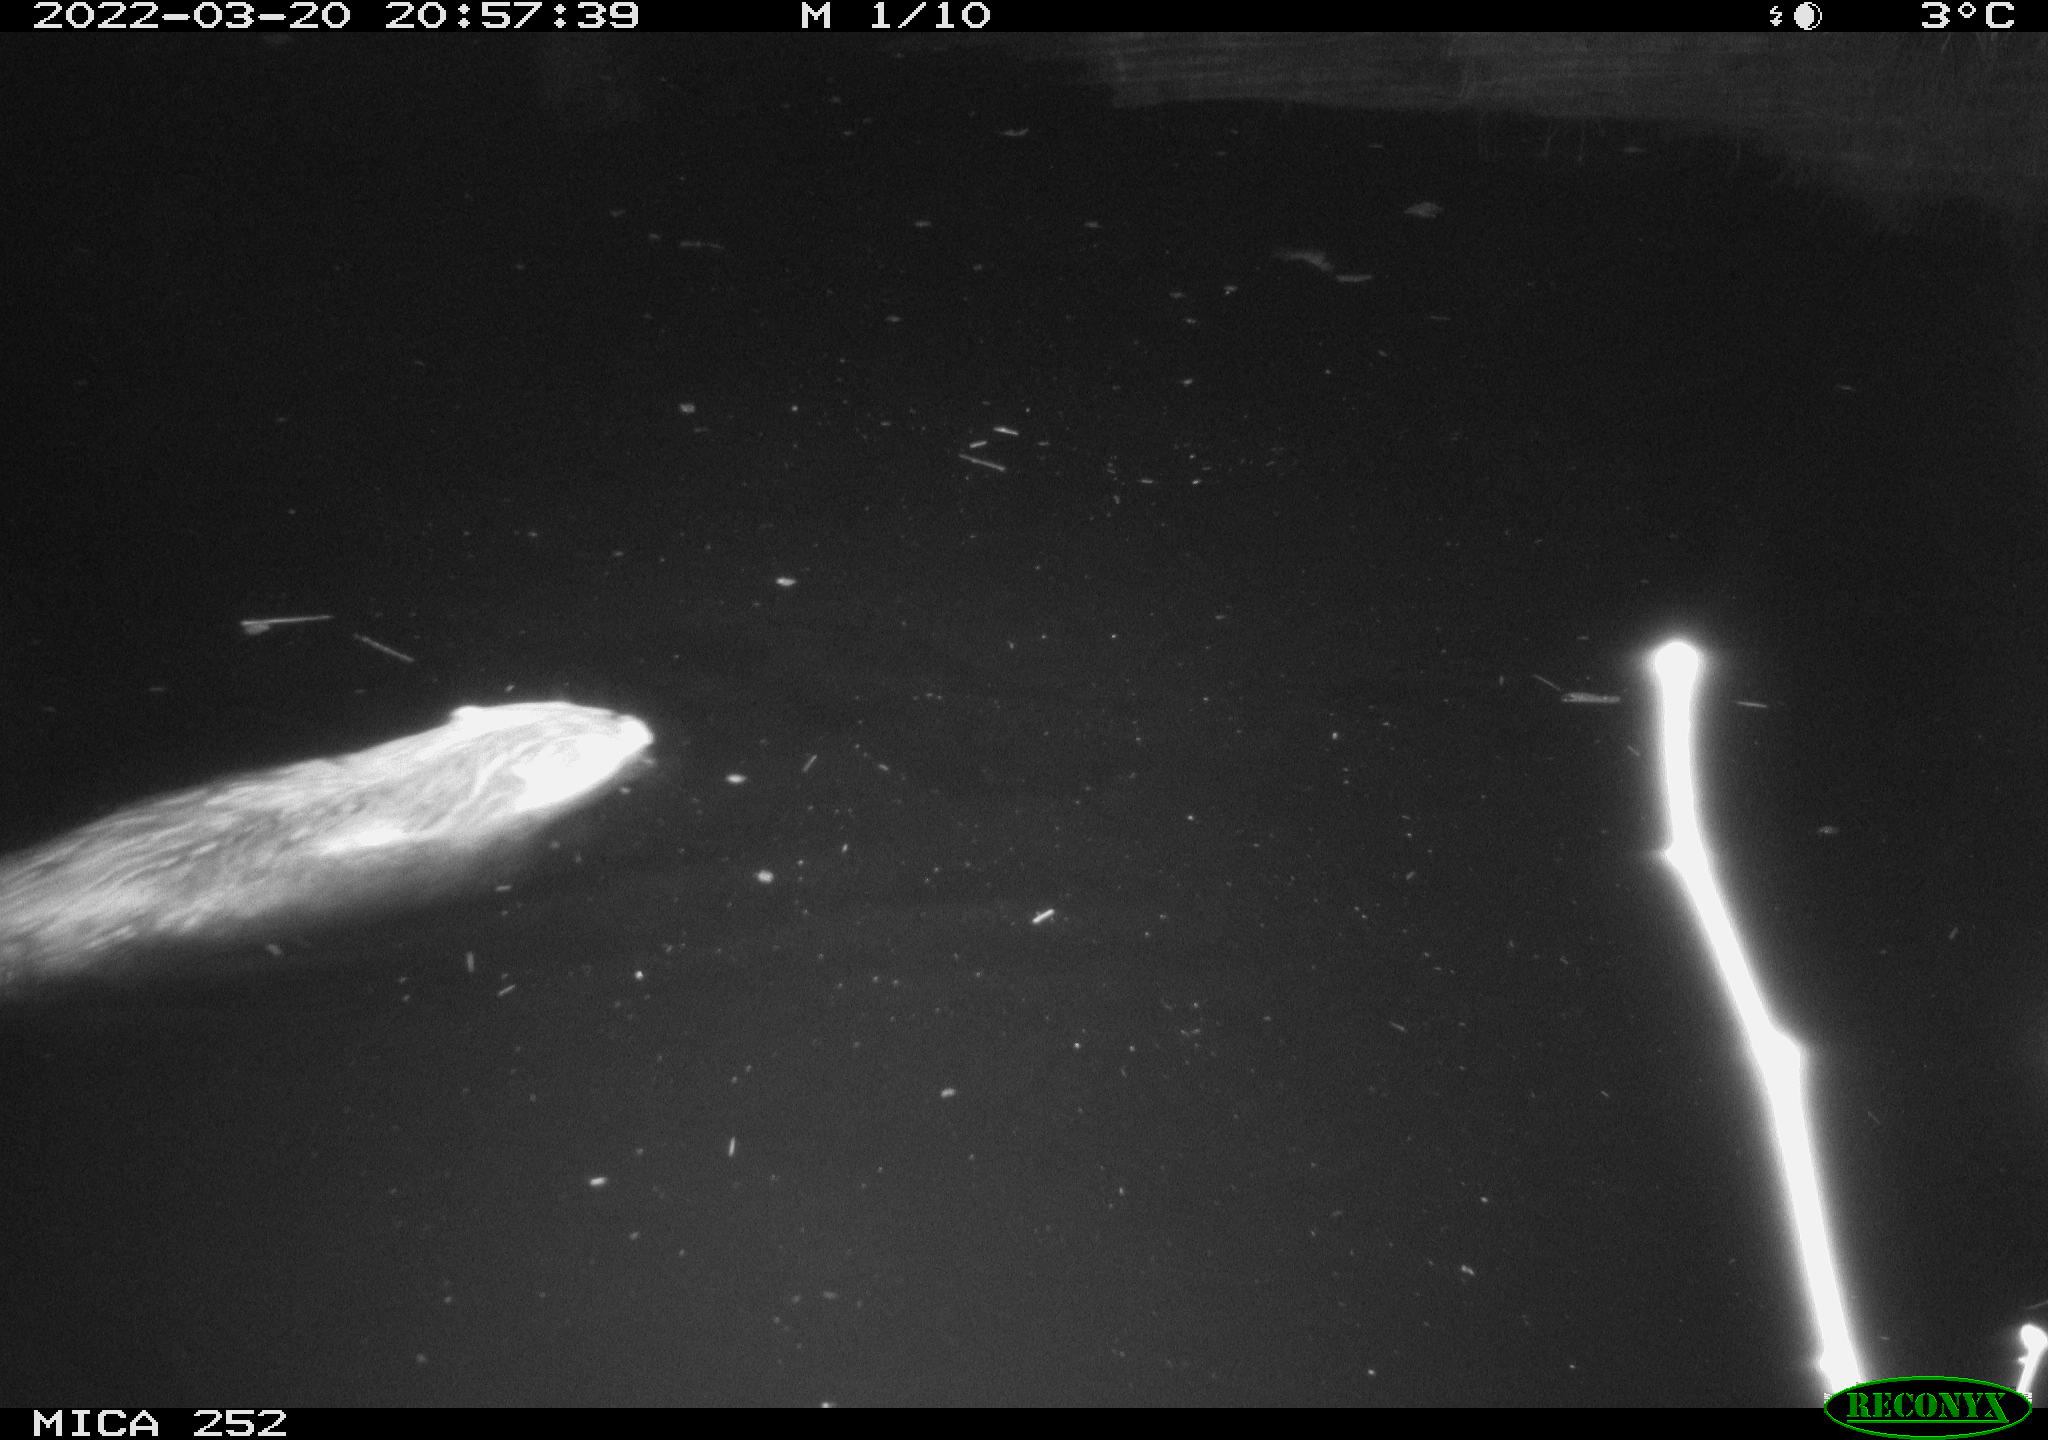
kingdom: Animalia
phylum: Chordata
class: Mammalia
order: Rodentia
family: Castoridae
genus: Castor
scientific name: Castor fiber
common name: Eurasian beaver
